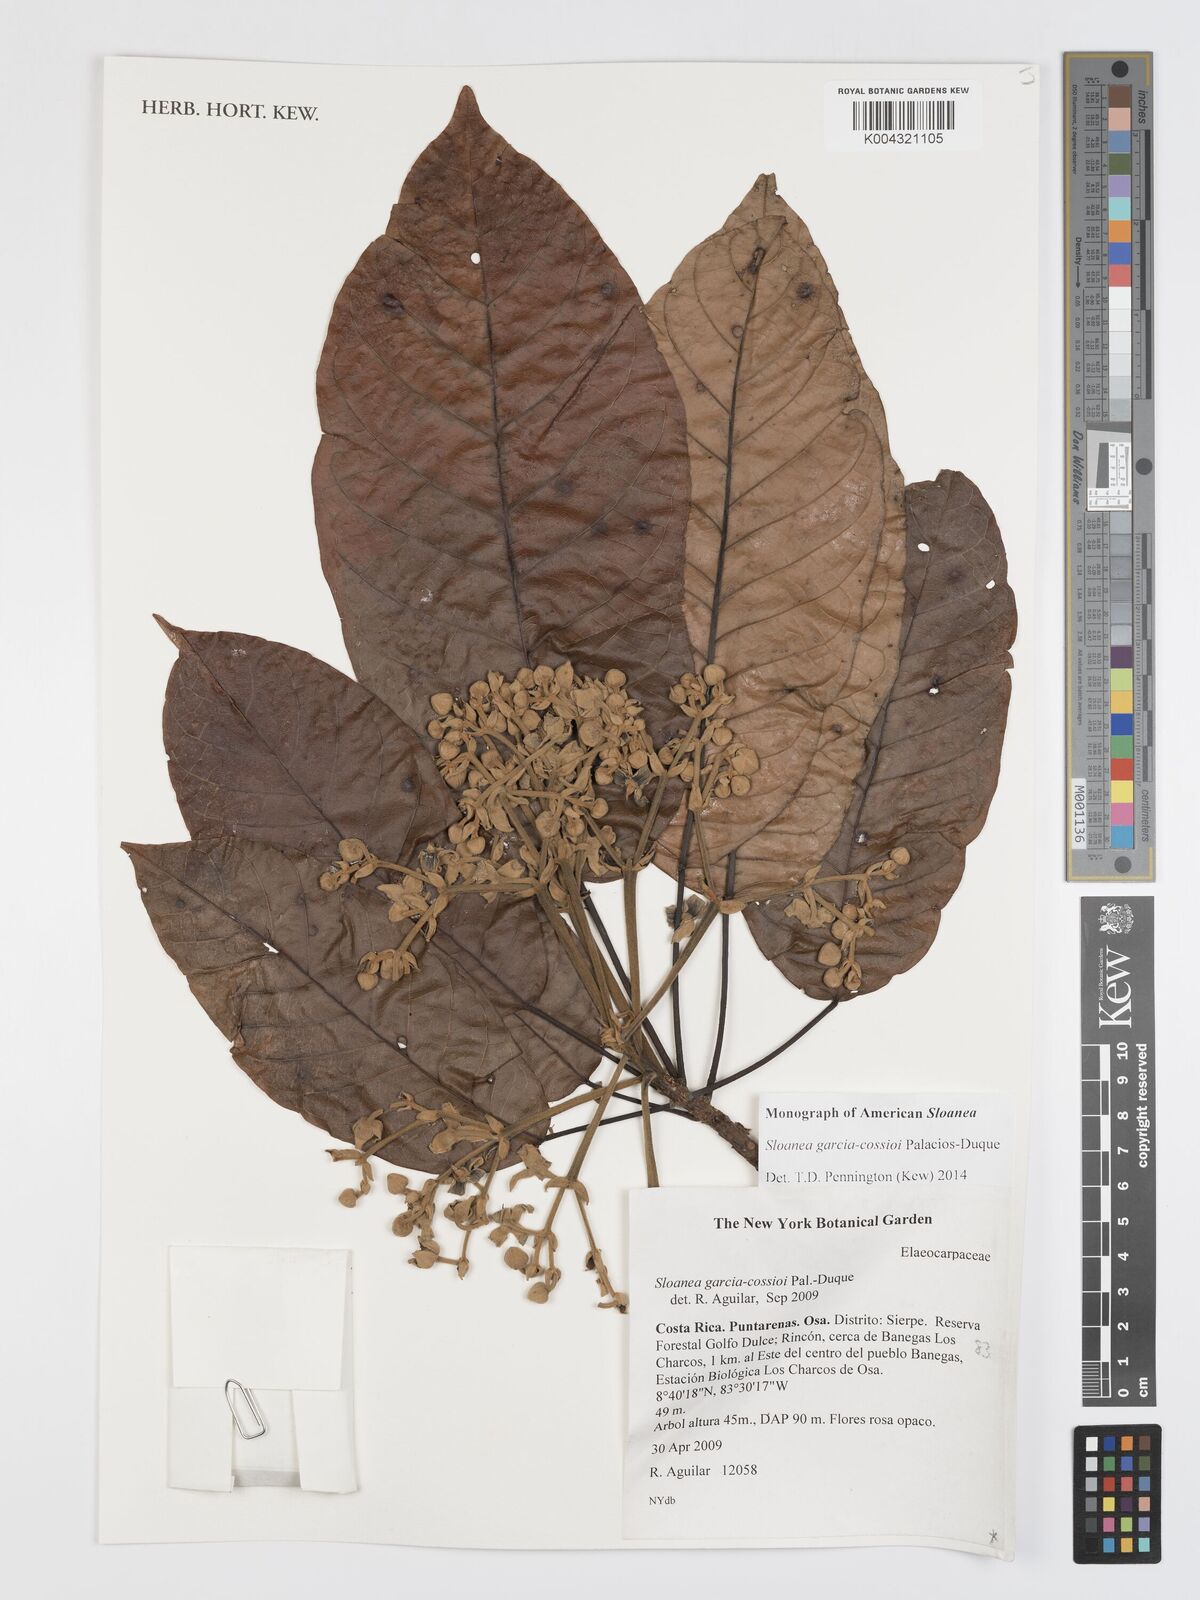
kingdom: Plantae
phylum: Tracheophyta
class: Magnoliopsida
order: Oxalidales
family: Elaeocarpaceae
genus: Sloanea
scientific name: Sloanea garcia-cossioi
